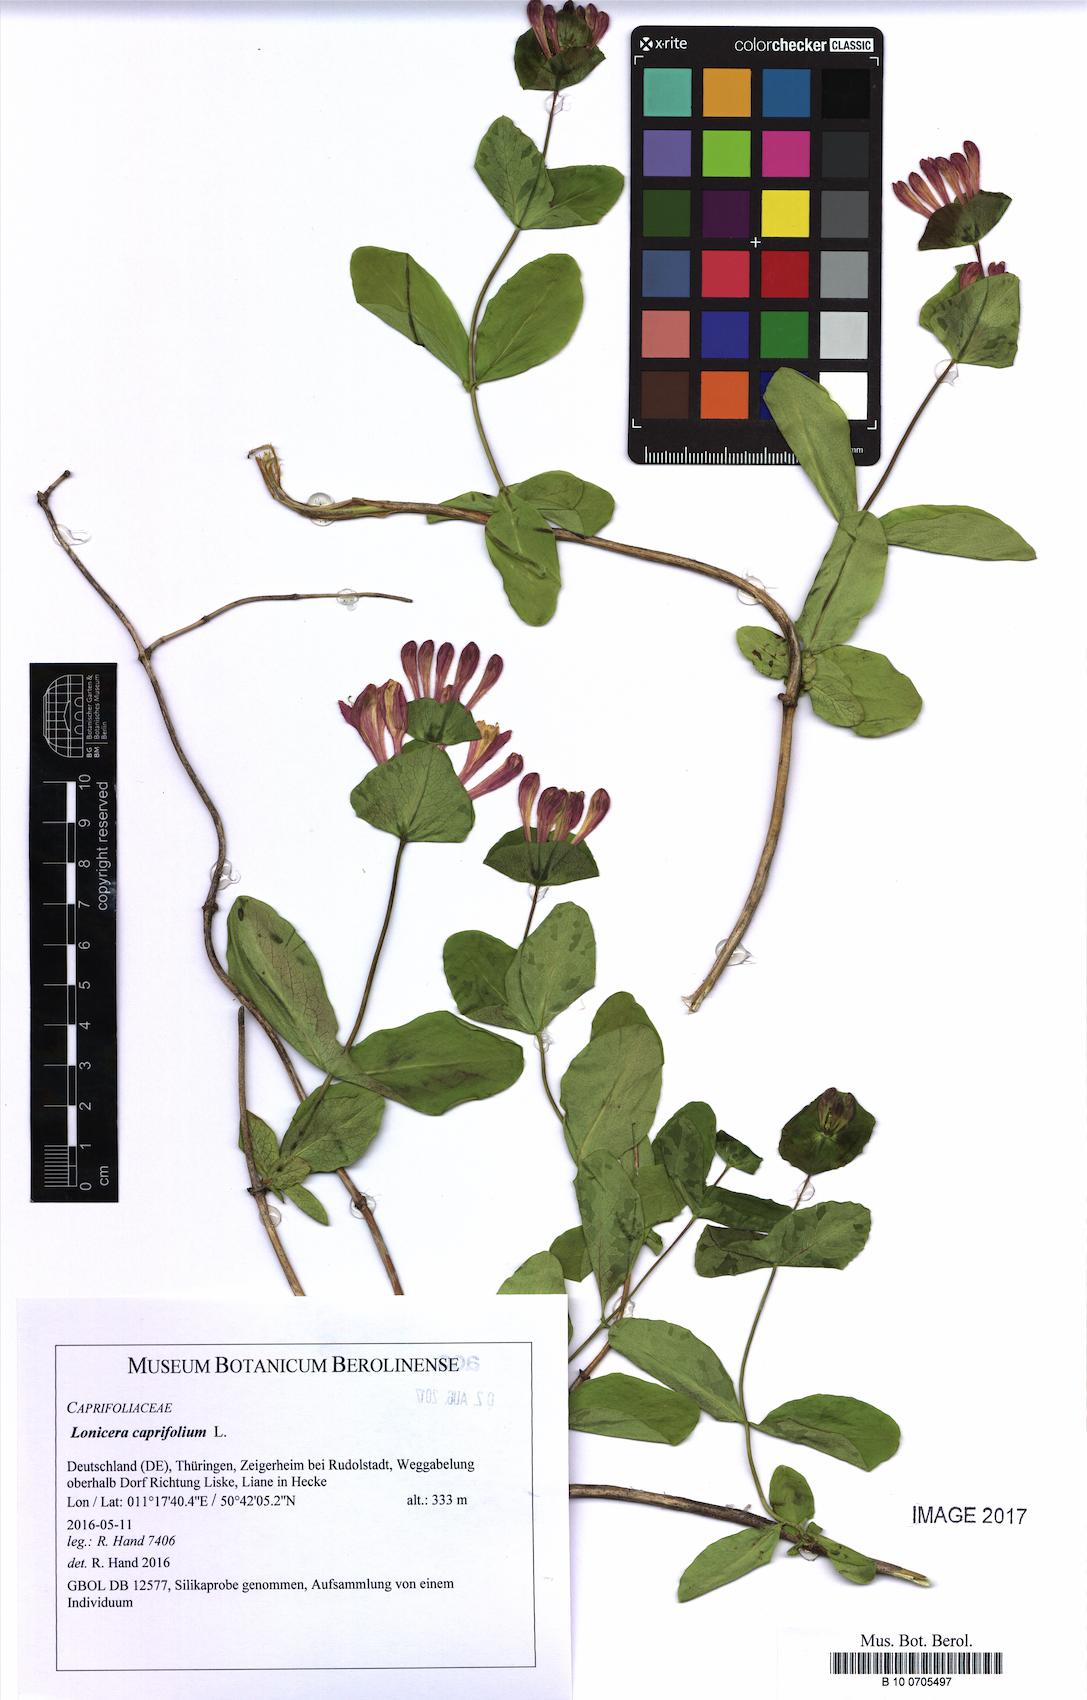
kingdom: Plantae
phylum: Tracheophyta
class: Magnoliopsida
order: Dipsacales
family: Caprifoliaceae
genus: Lonicera
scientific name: Lonicera caprifolium
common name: Perfoliate honeysuckle
